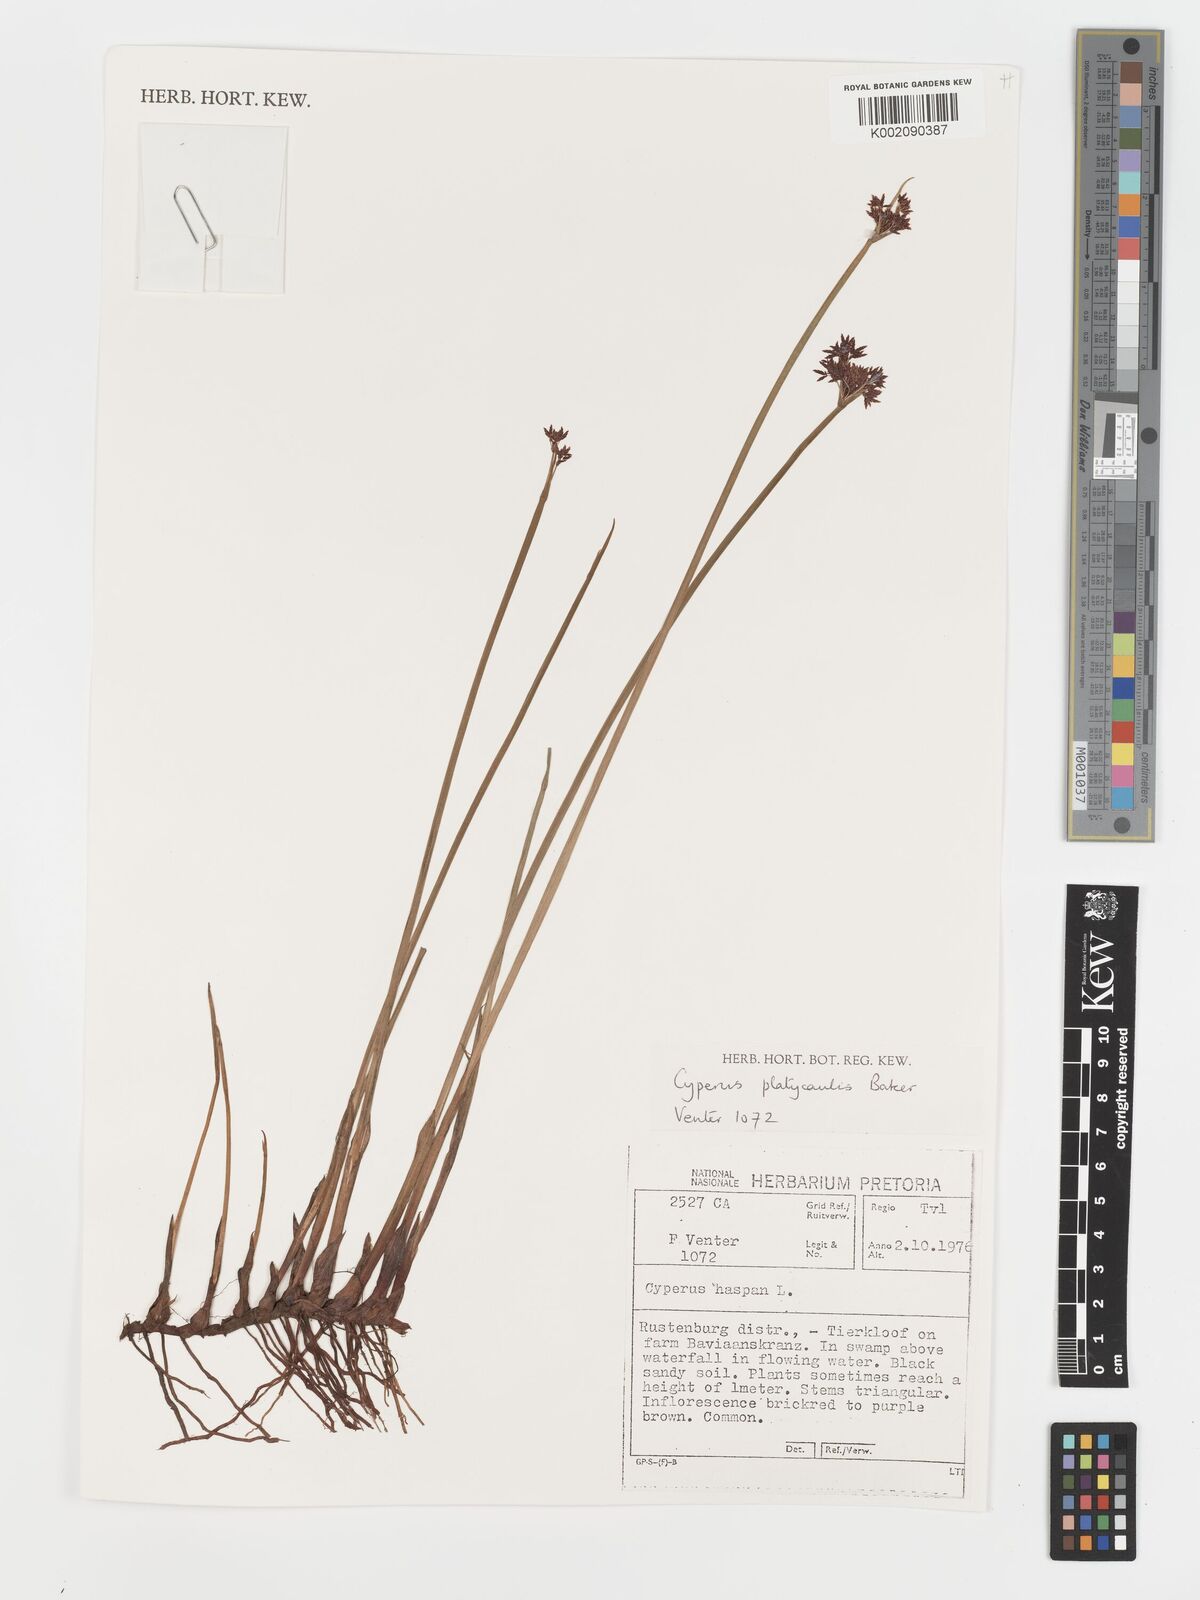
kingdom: Plantae
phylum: Tracheophyta
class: Liliopsida
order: Poales
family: Cyperaceae
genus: Cyperus
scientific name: Cyperus platycaulis
